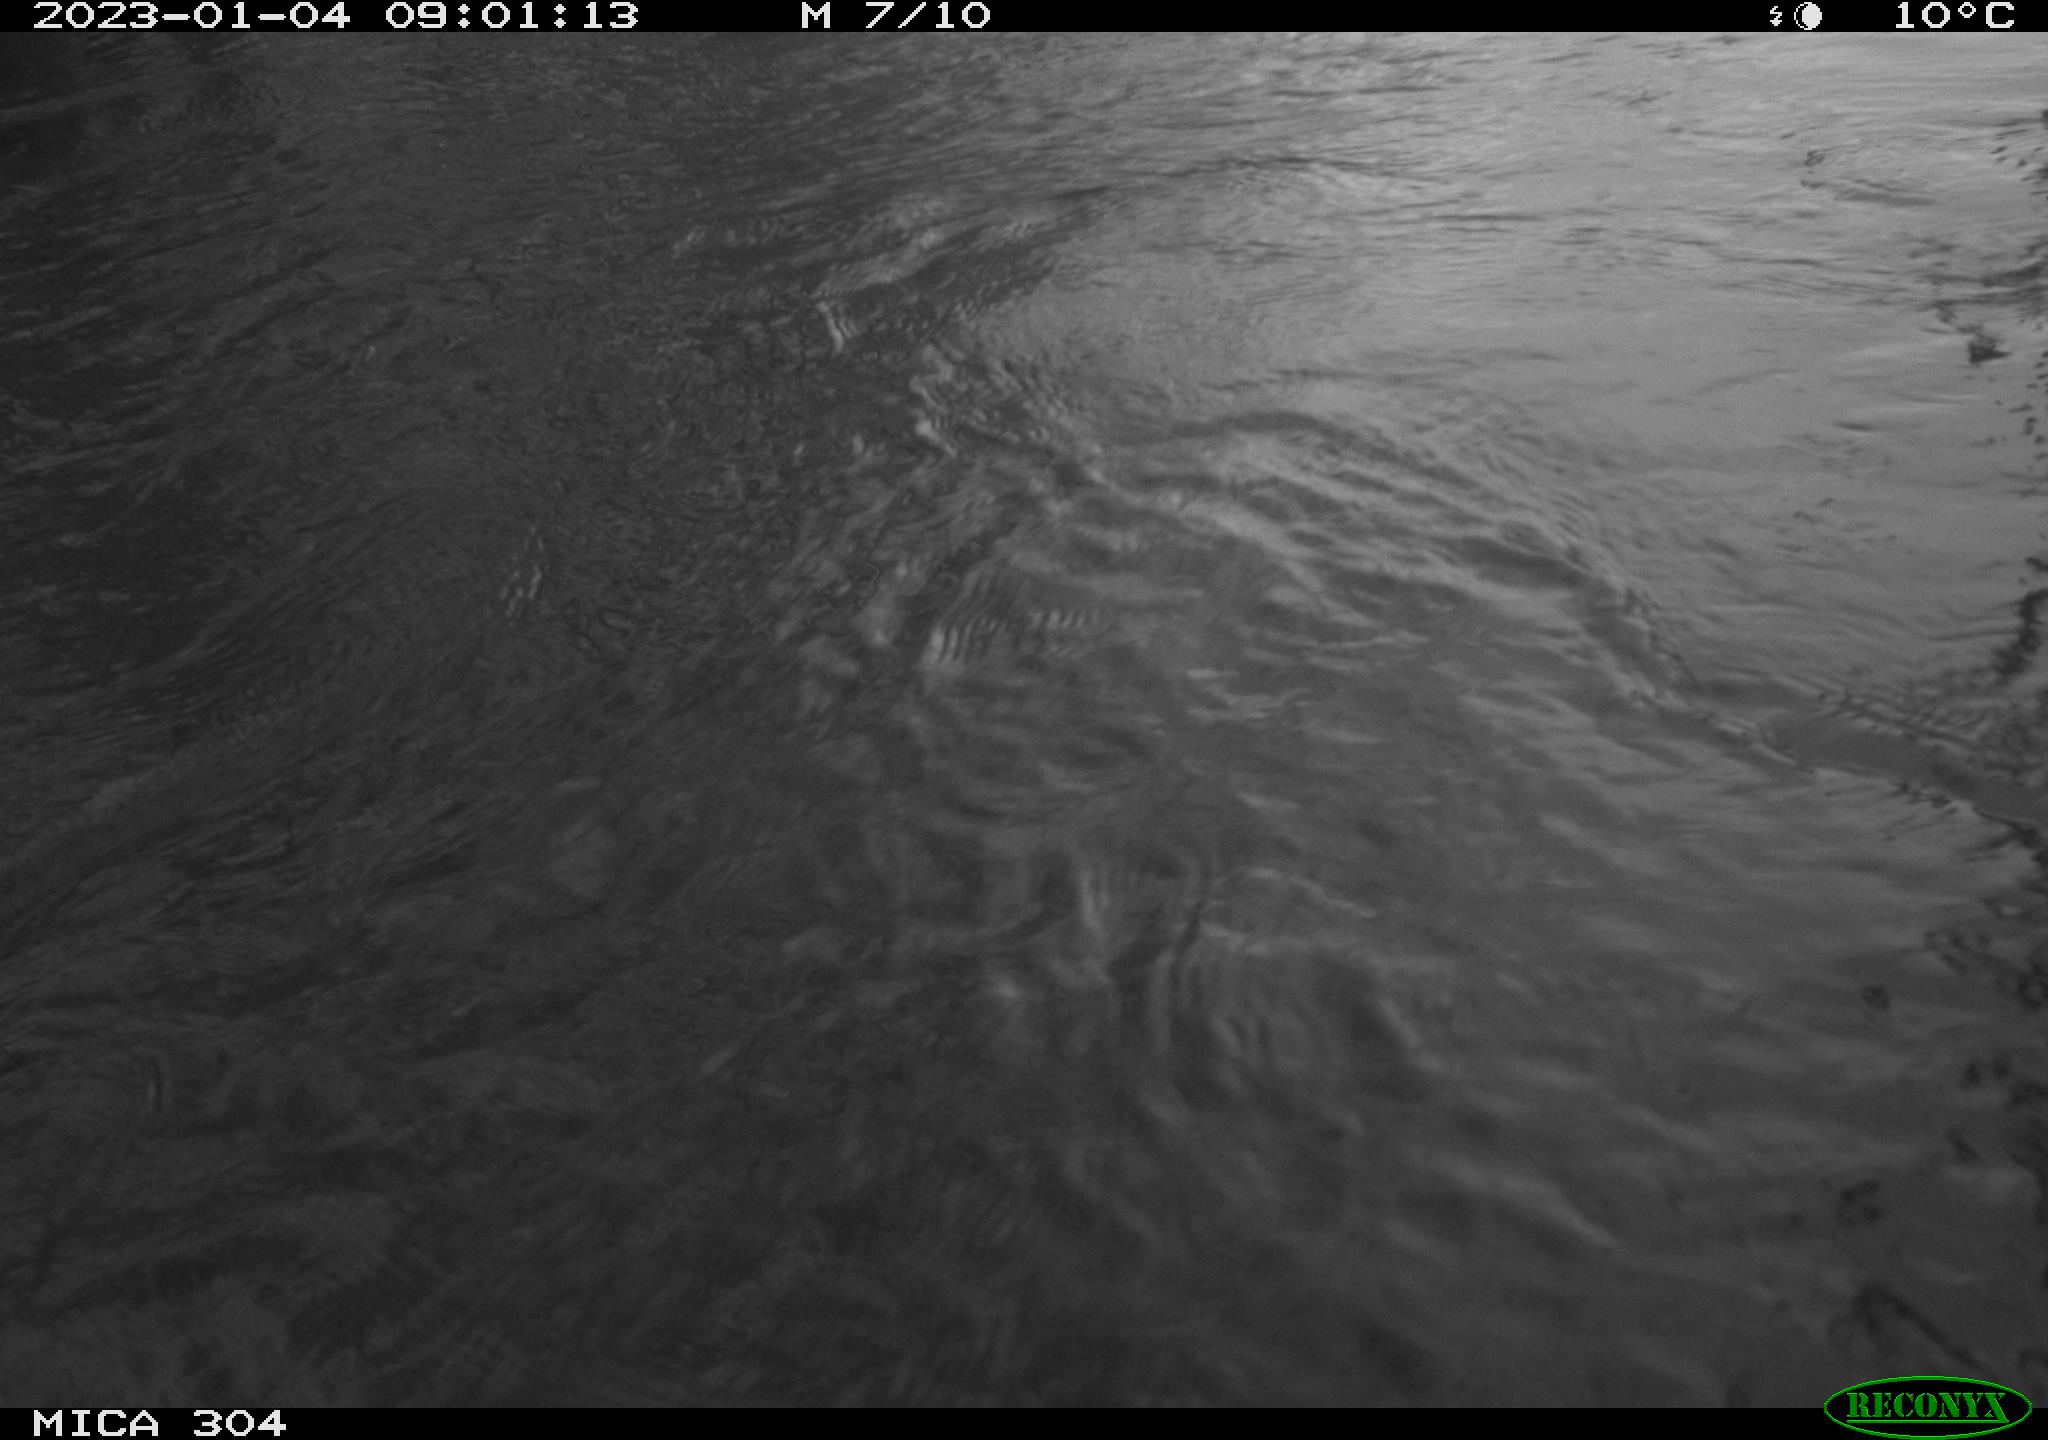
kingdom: Animalia
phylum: Chordata
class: Aves
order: Anseriformes
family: Anatidae
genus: Anas
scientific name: Anas
